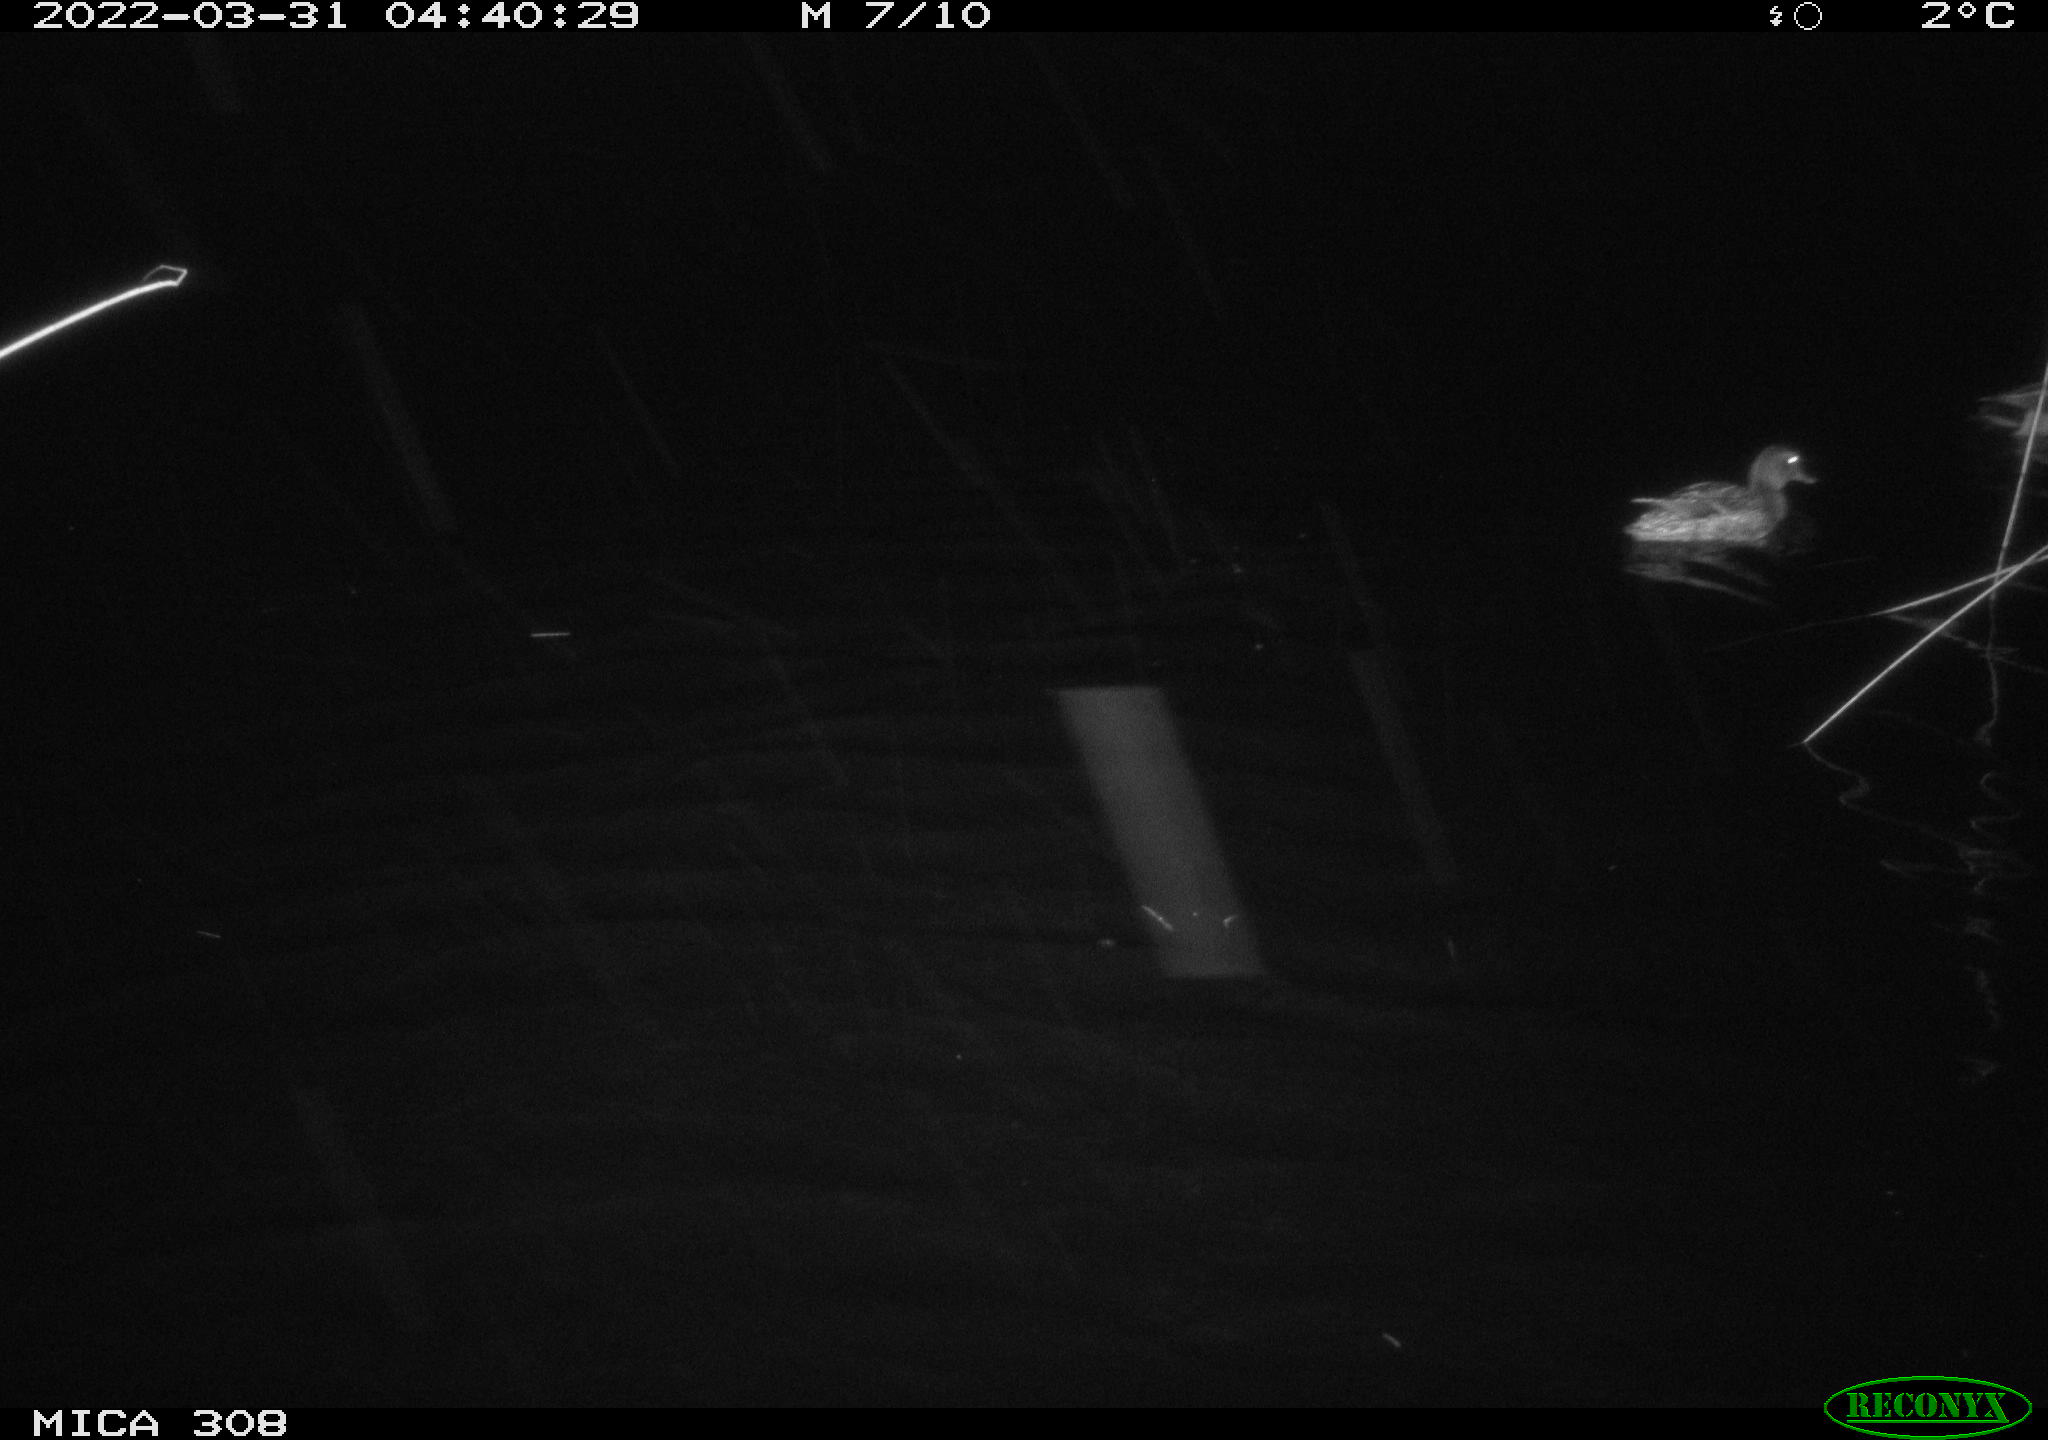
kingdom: Animalia
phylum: Chordata
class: Aves
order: Anseriformes
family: Anatidae
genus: Anas
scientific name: Anas platyrhynchos
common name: Mallard
